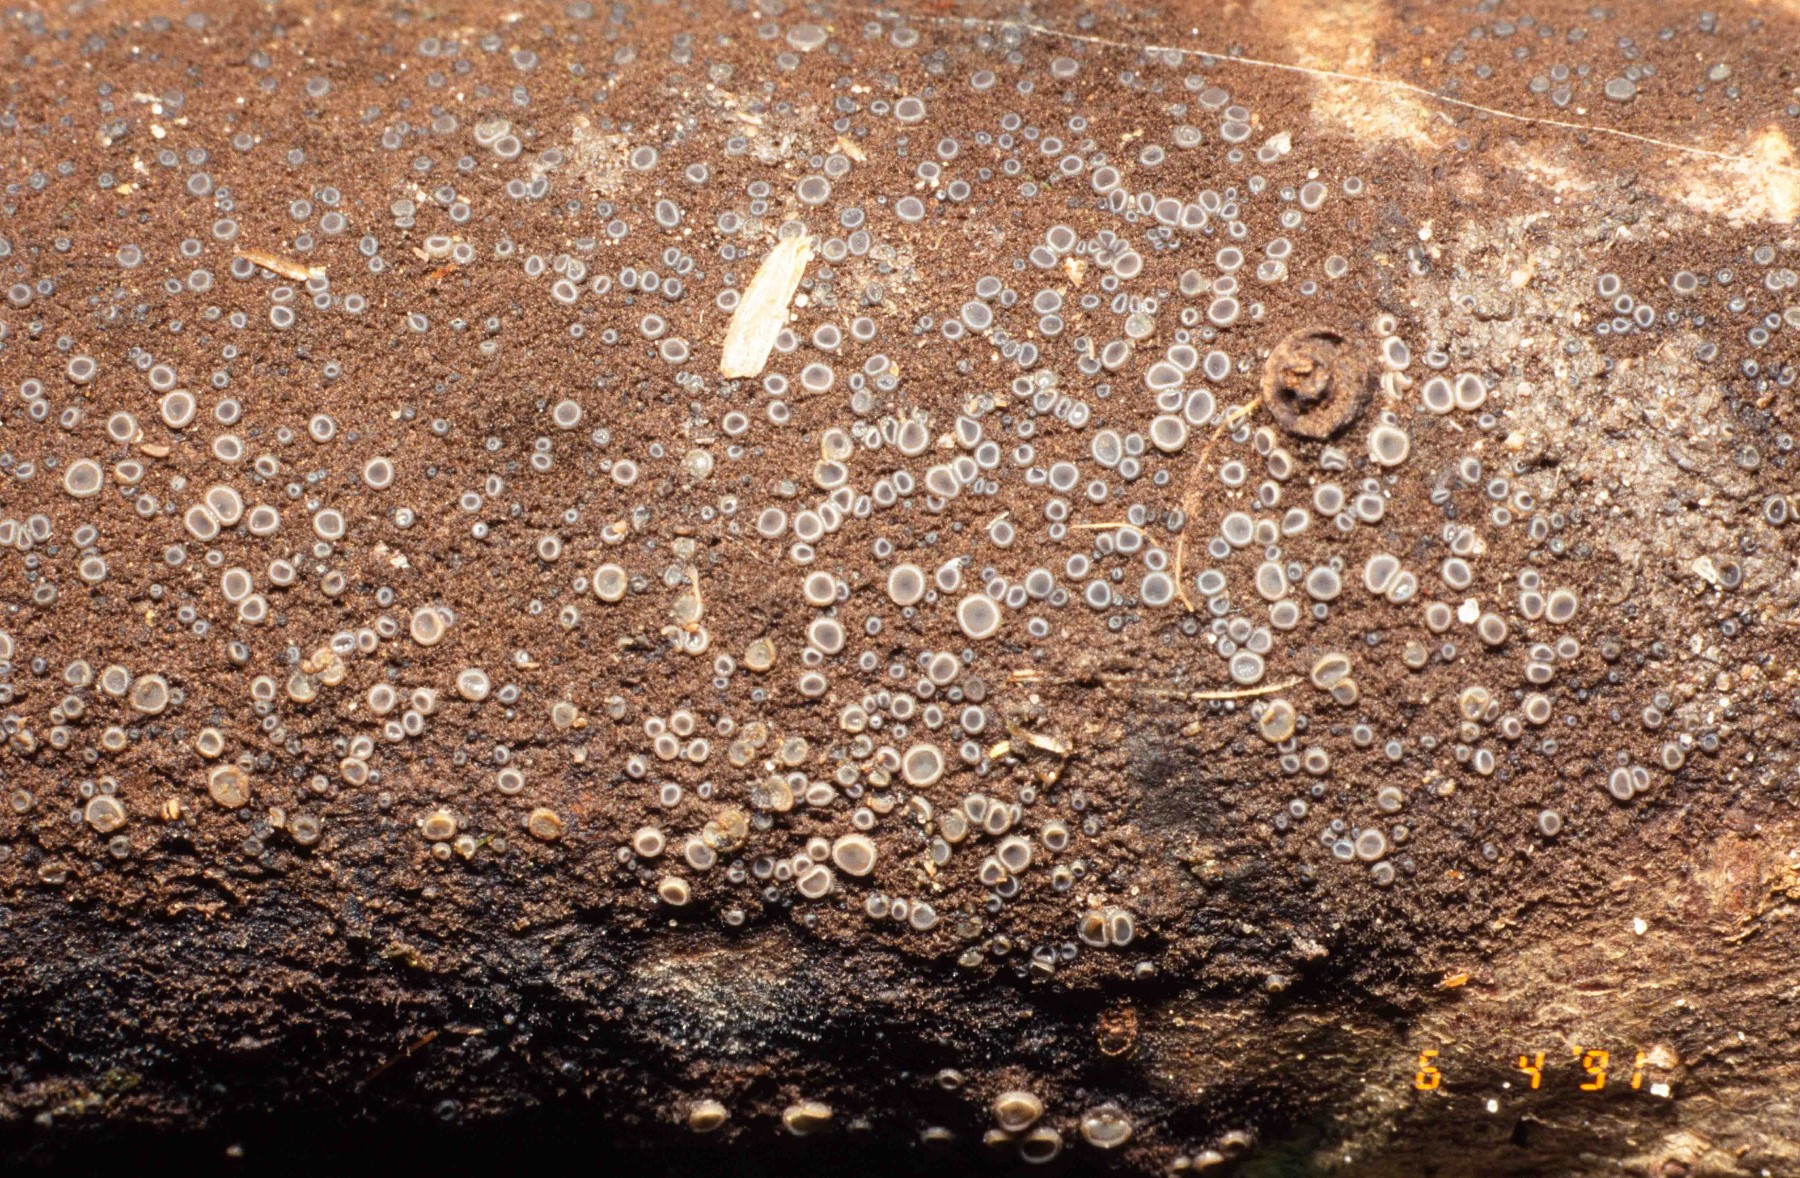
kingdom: Fungi
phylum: Ascomycota
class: Leotiomycetes
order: Helotiales
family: Mollisiaceae
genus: Mollisia
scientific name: Mollisia
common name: gråskive
